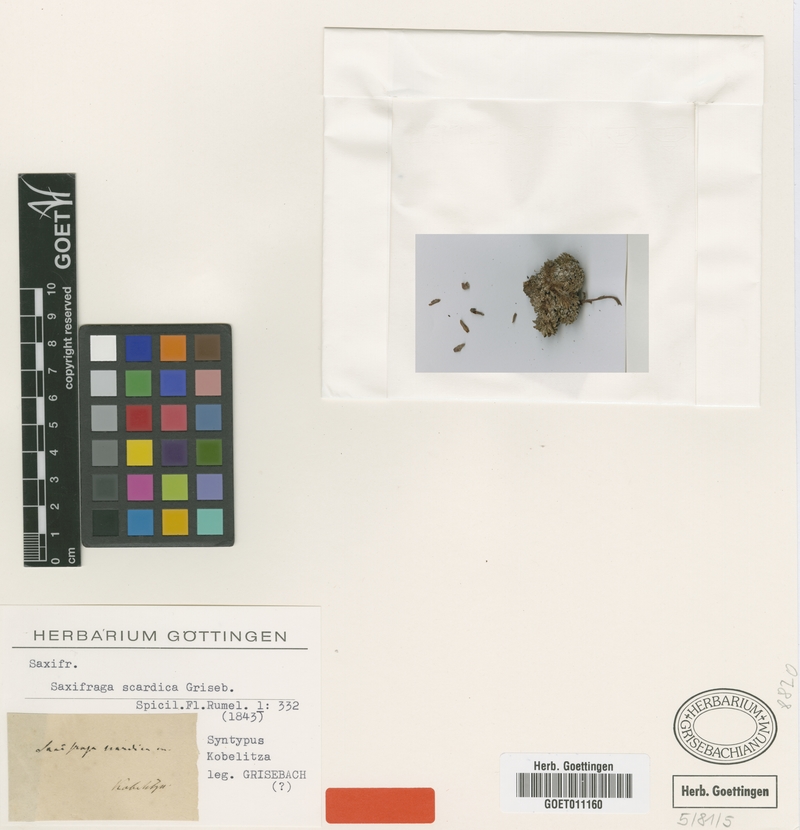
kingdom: Plantae
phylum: Tracheophyta
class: Magnoliopsida
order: Saxifragales
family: Saxifragaceae
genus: Saxifraga
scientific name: Saxifraga scardica
